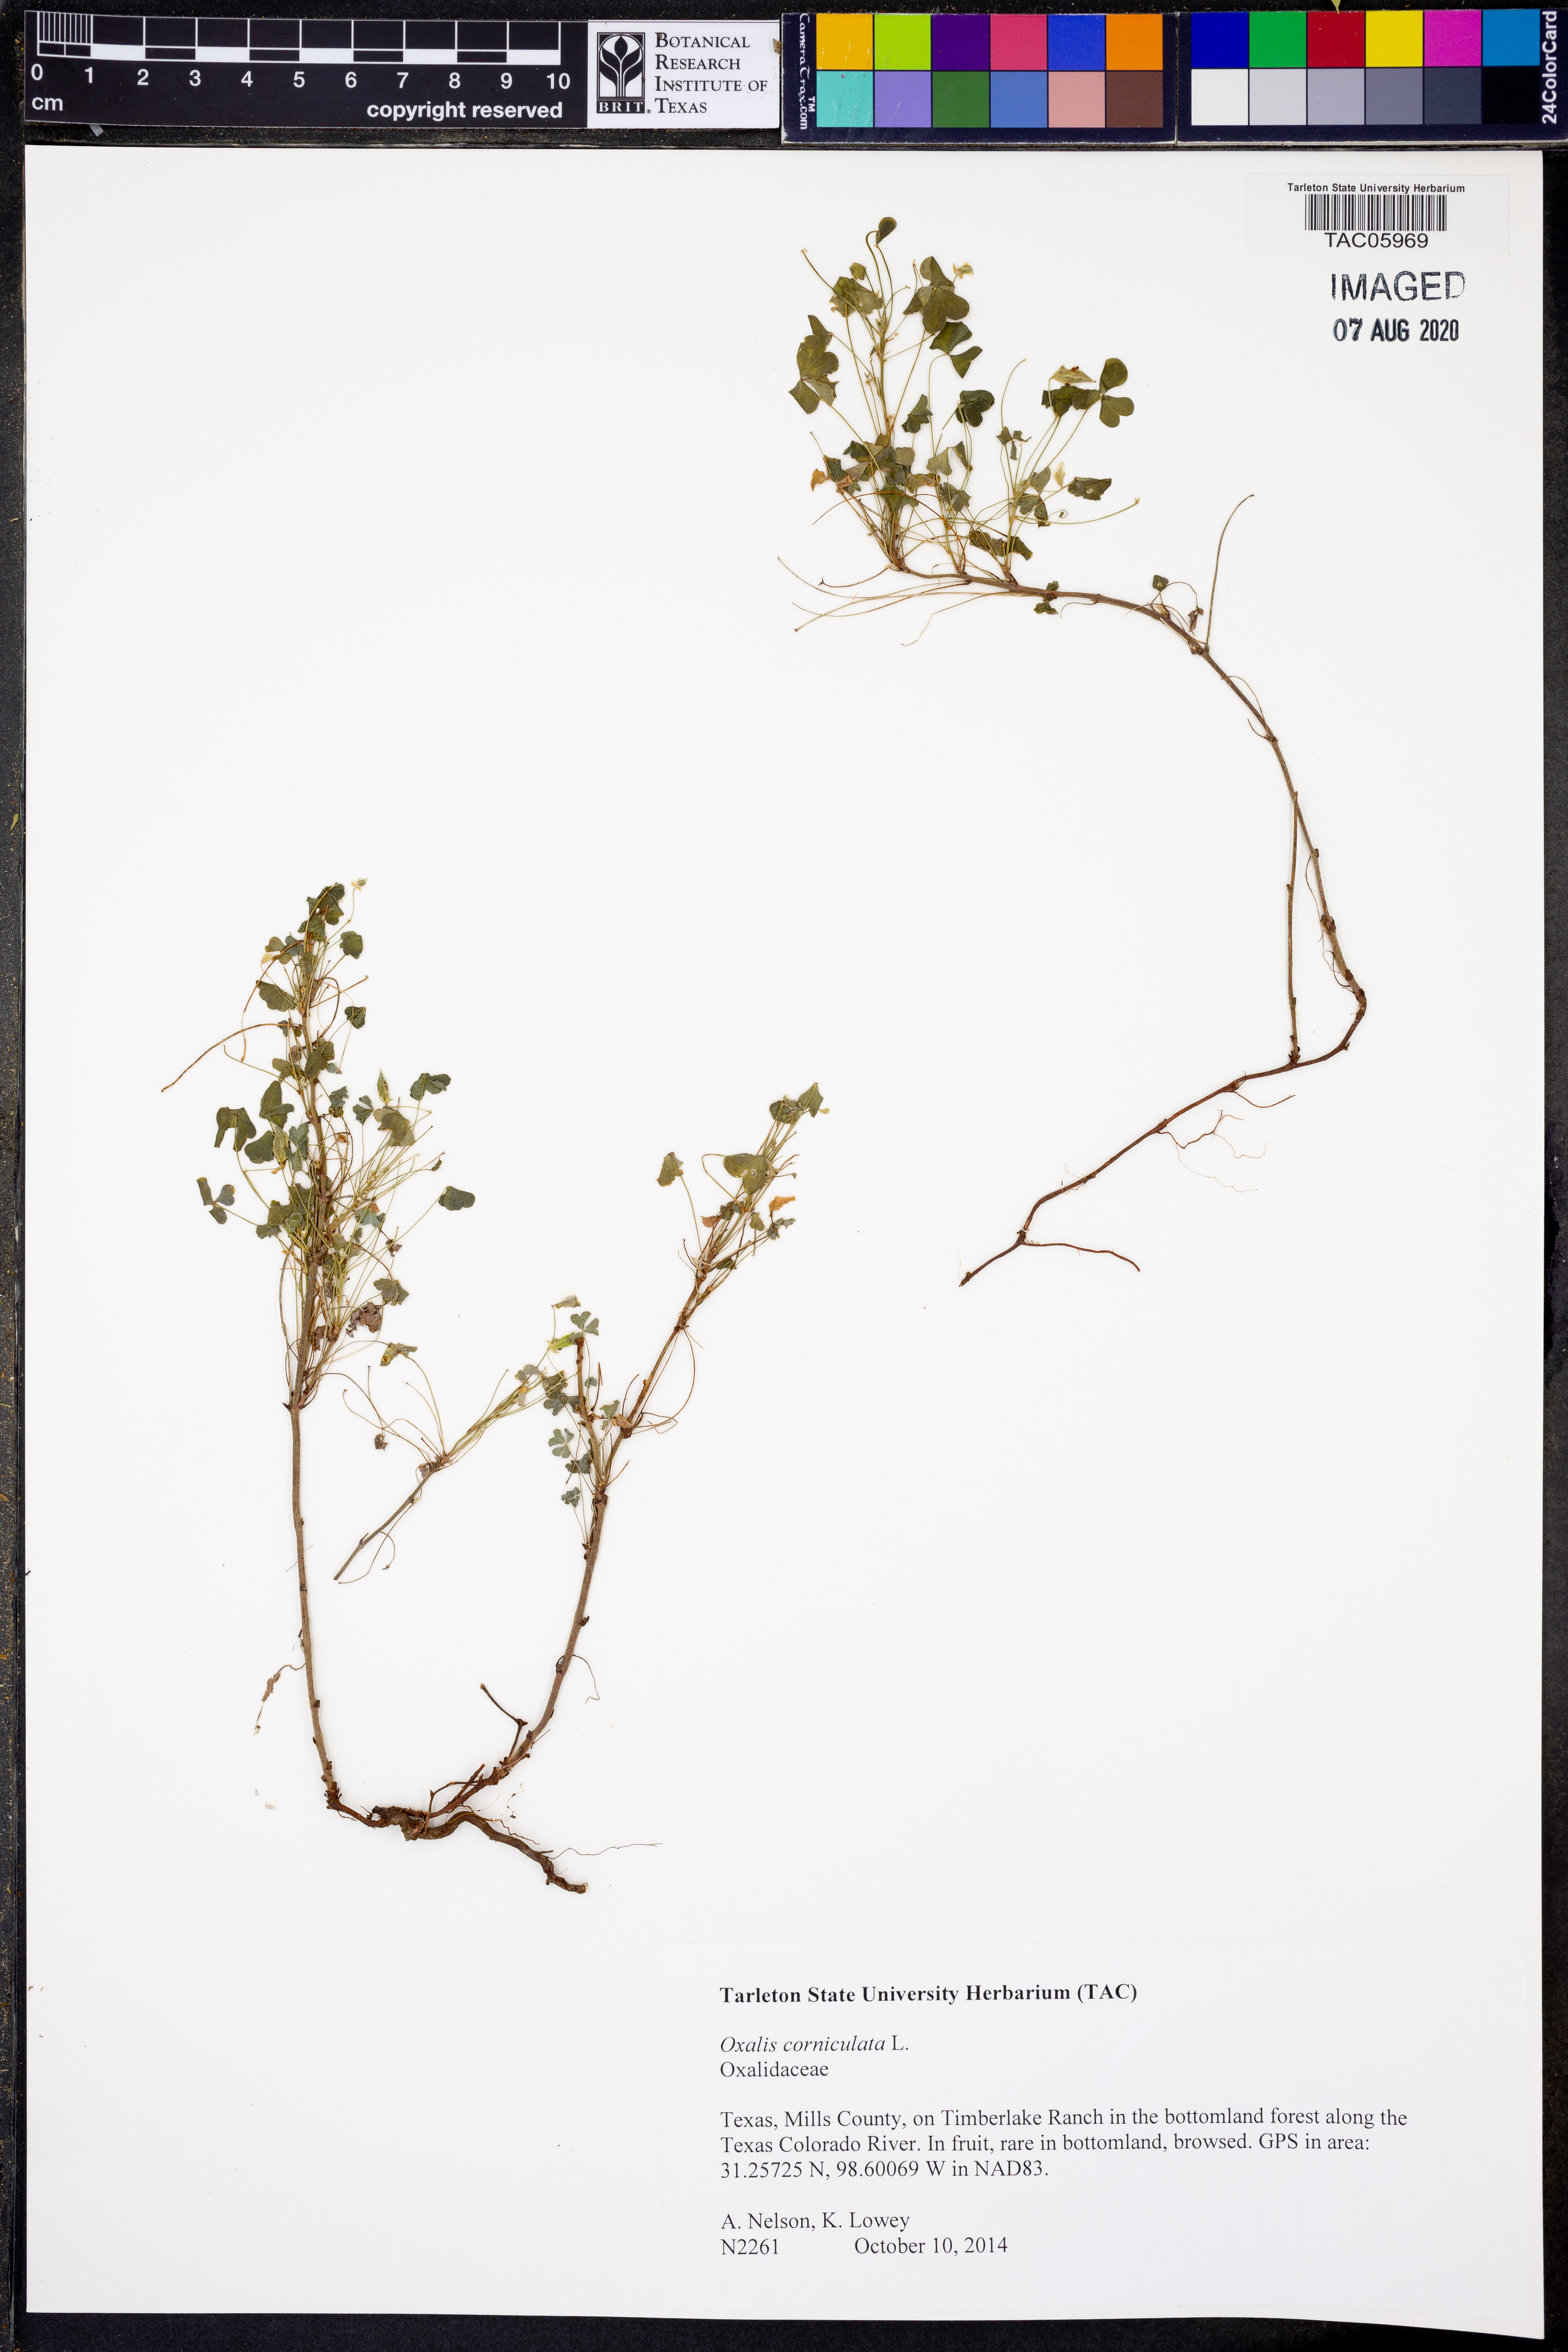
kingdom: Plantae
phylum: Tracheophyta
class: Magnoliopsida
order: Oxalidales
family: Oxalidaceae
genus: Oxalis
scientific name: Oxalis corniculata
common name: Procumbent yellow-sorrel
